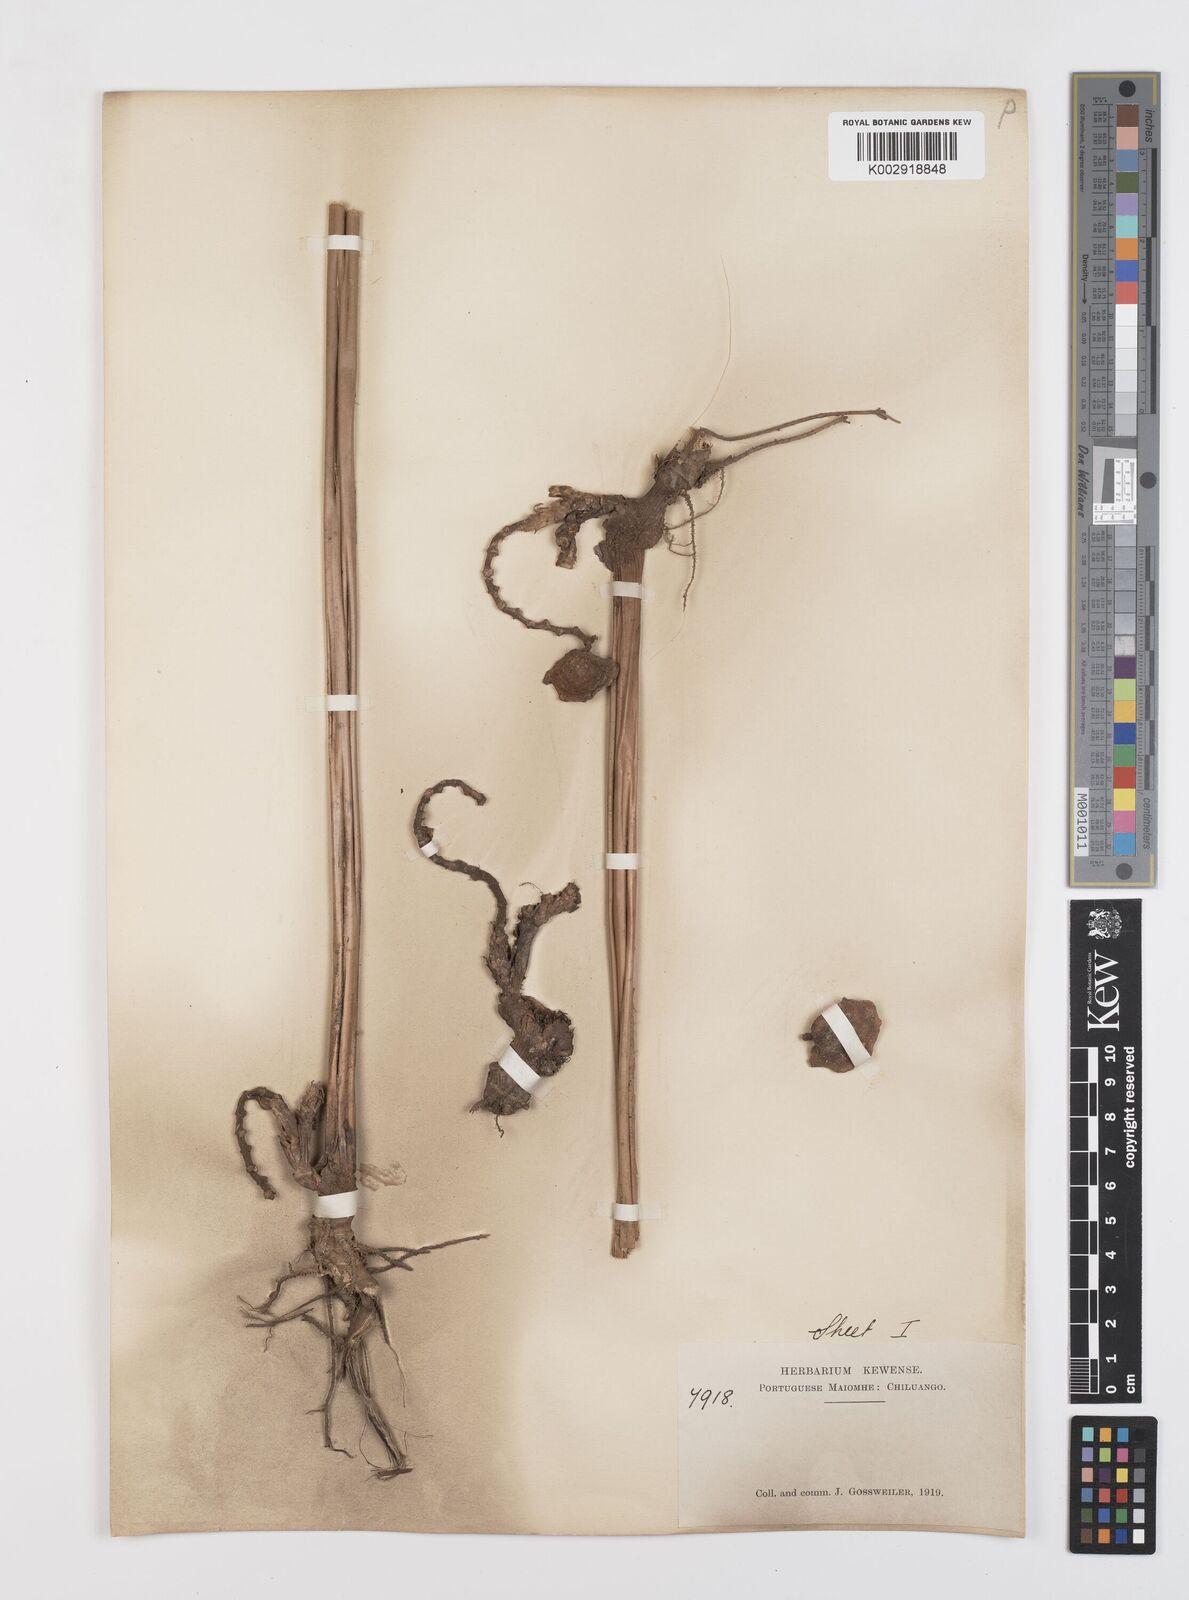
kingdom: Plantae
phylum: Tracheophyta
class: Liliopsida
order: Zingiberales
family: Marantaceae
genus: Thaumatococcus
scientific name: Thaumatococcus daniellii
